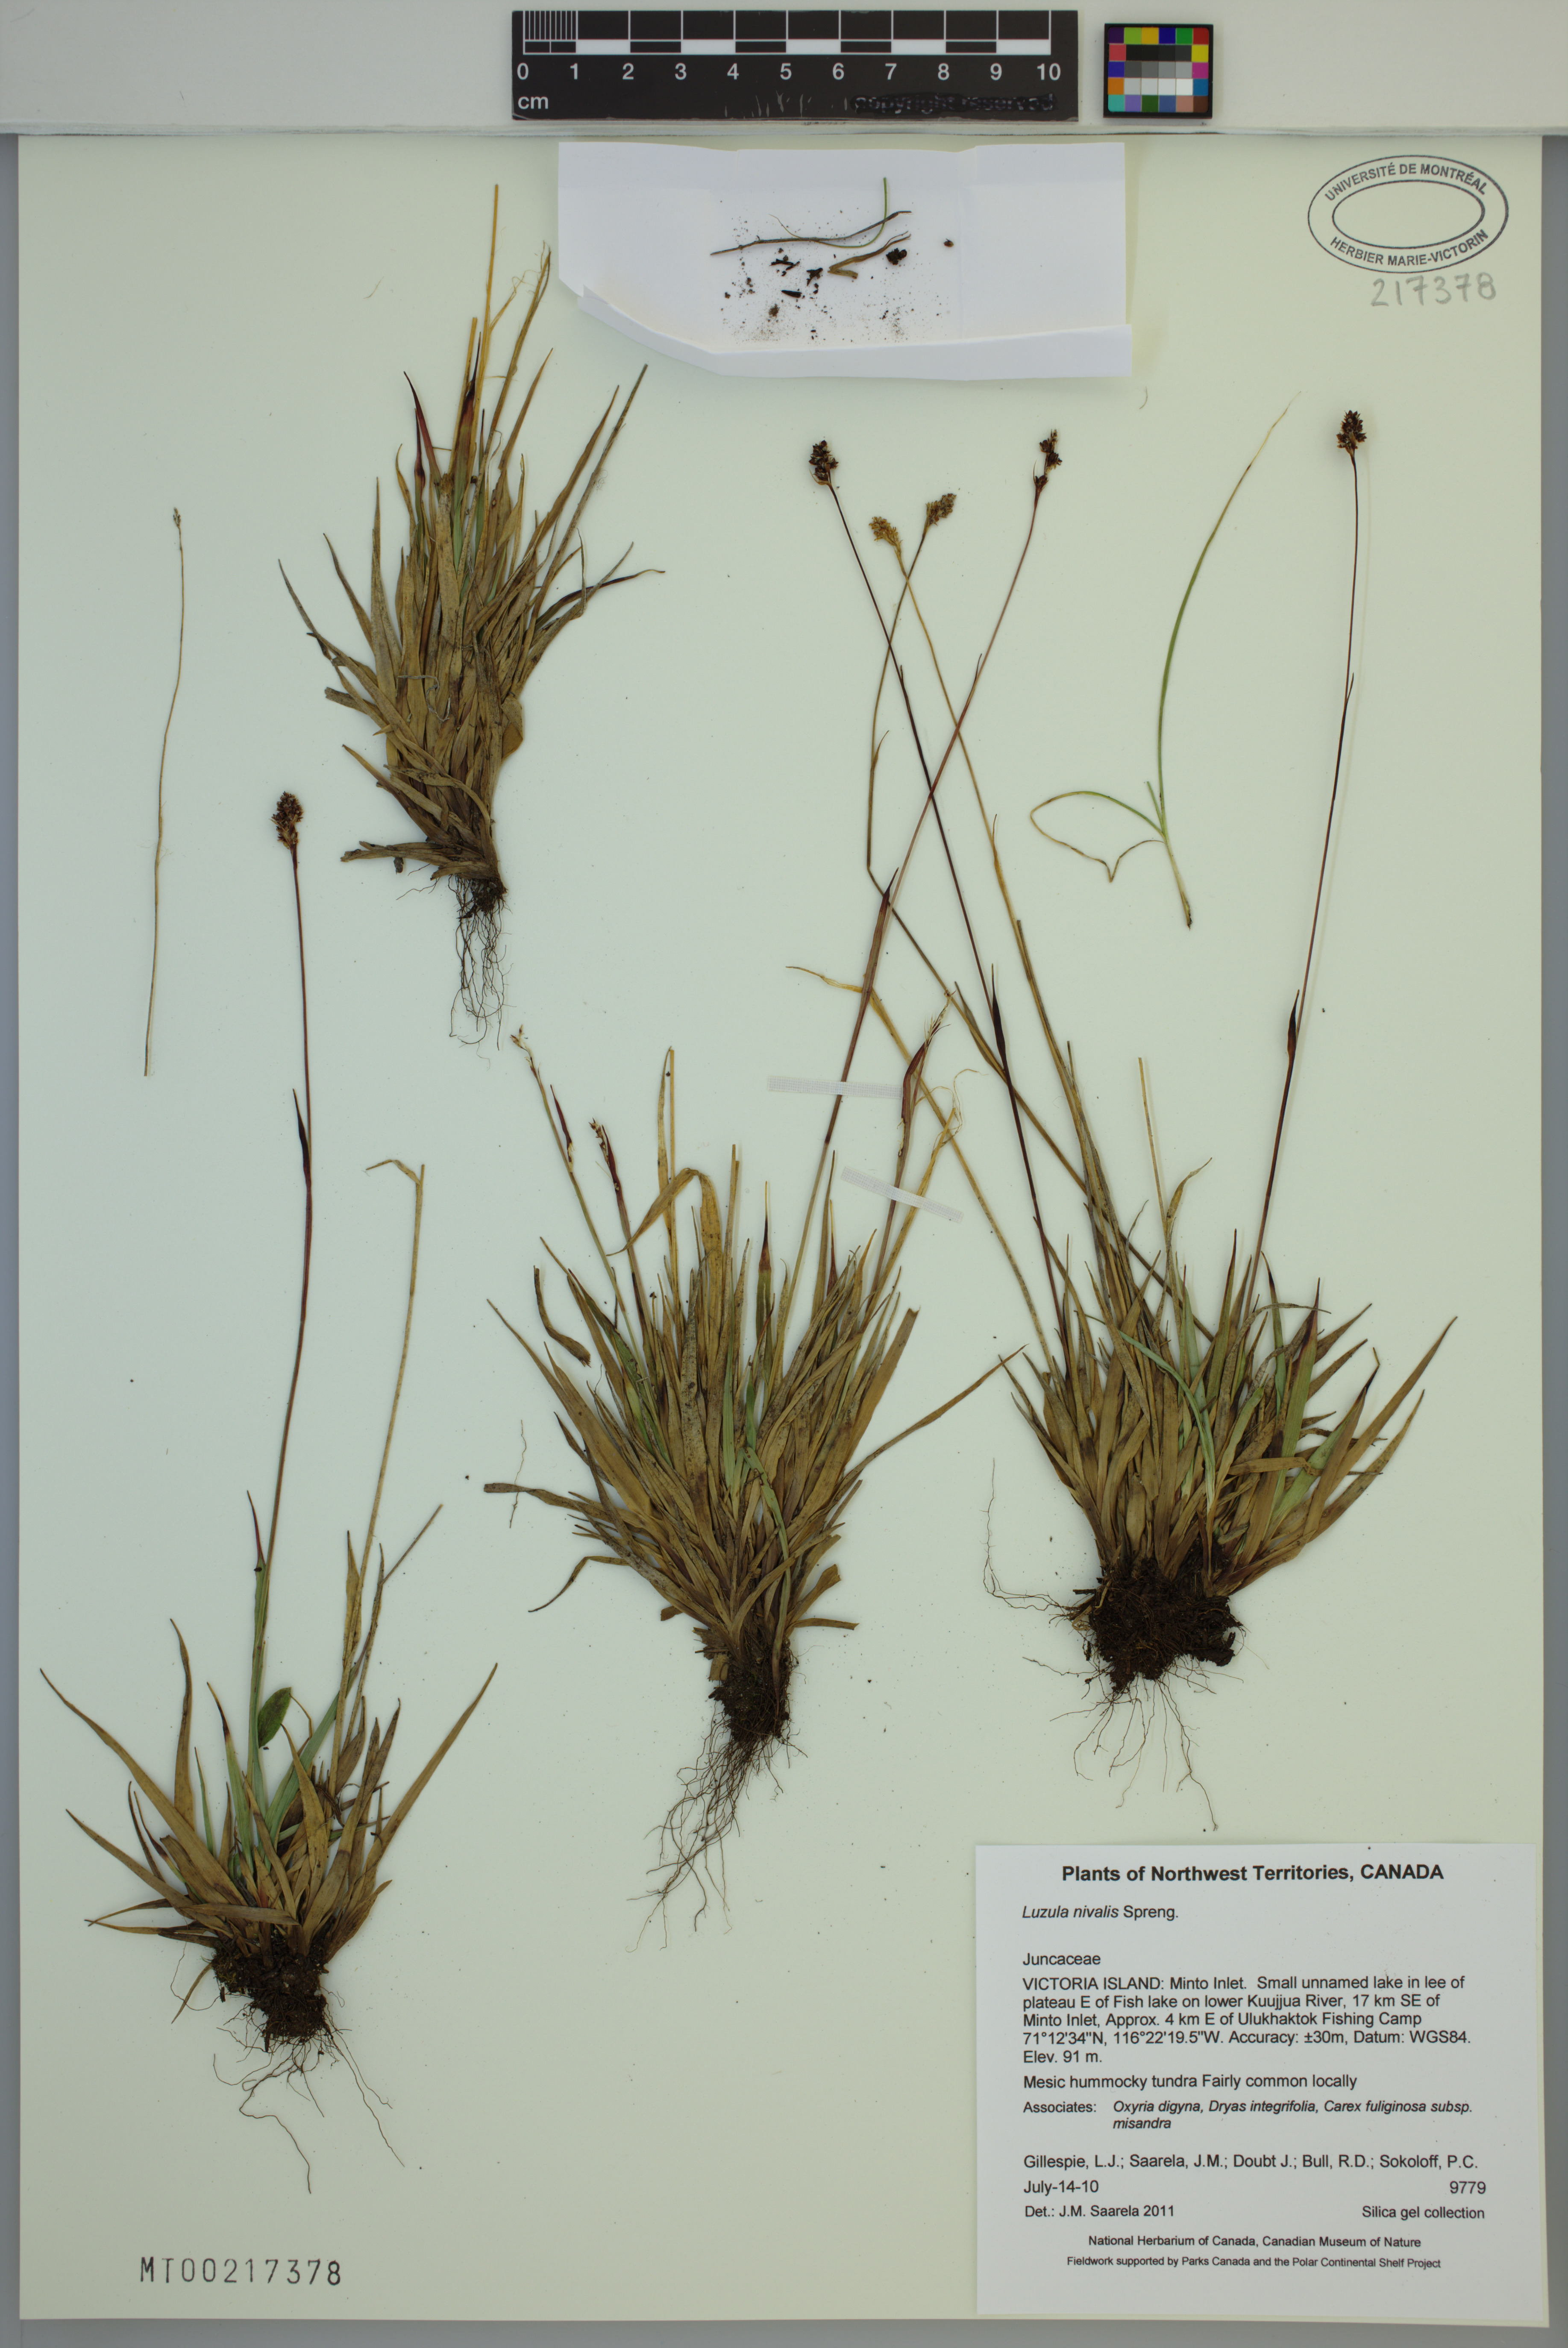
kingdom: Plantae
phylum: Tracheophyta
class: Liliopsida
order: Poales
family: Juncaceae
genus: Luzula
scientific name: Luzula nivalis
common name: Arctic woodrush
